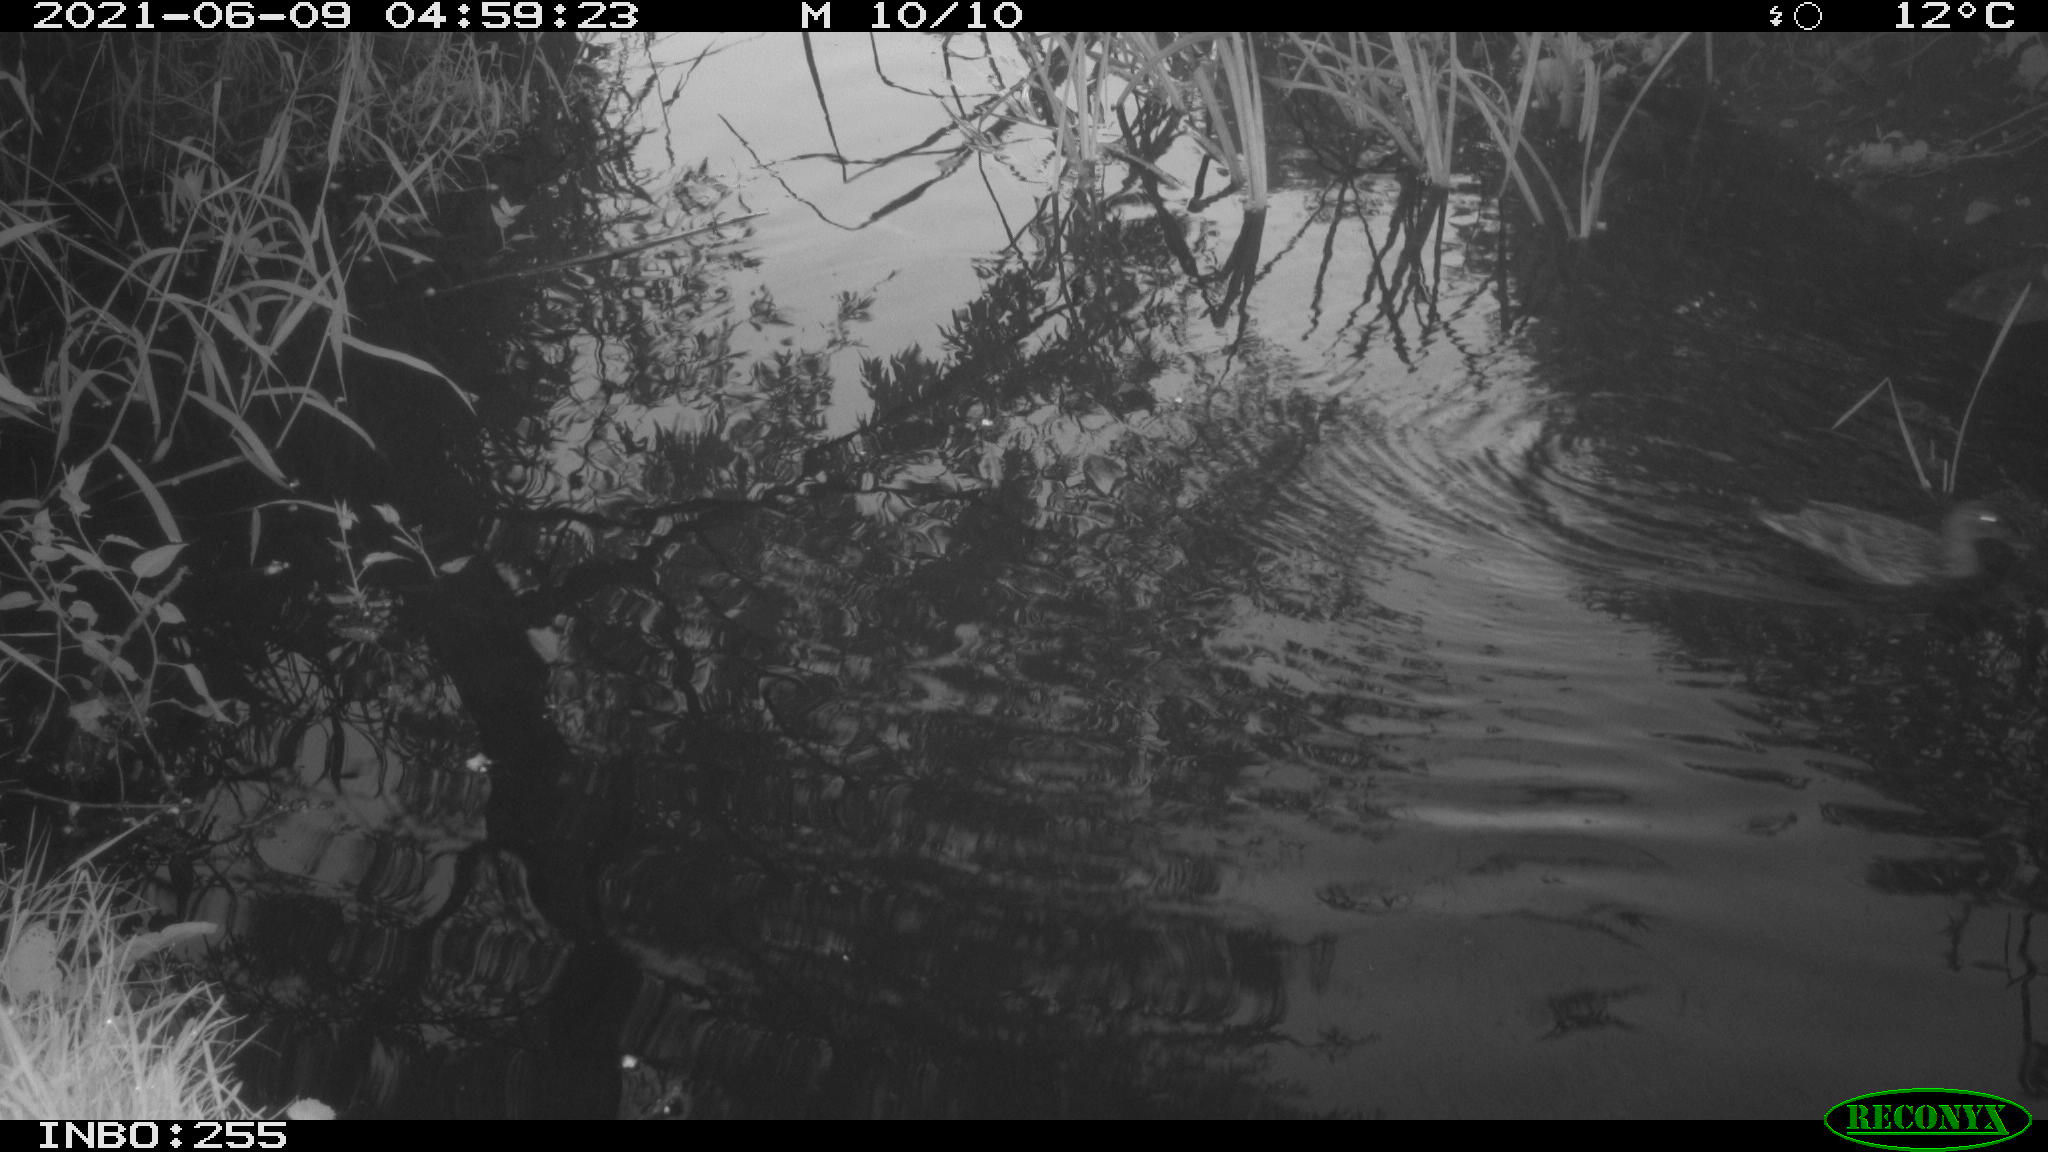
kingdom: Animalia
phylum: Chordata
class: Aves
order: Anseriformes
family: Anatidae
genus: Anas
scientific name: Anas platyrhynchos
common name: Mallard
